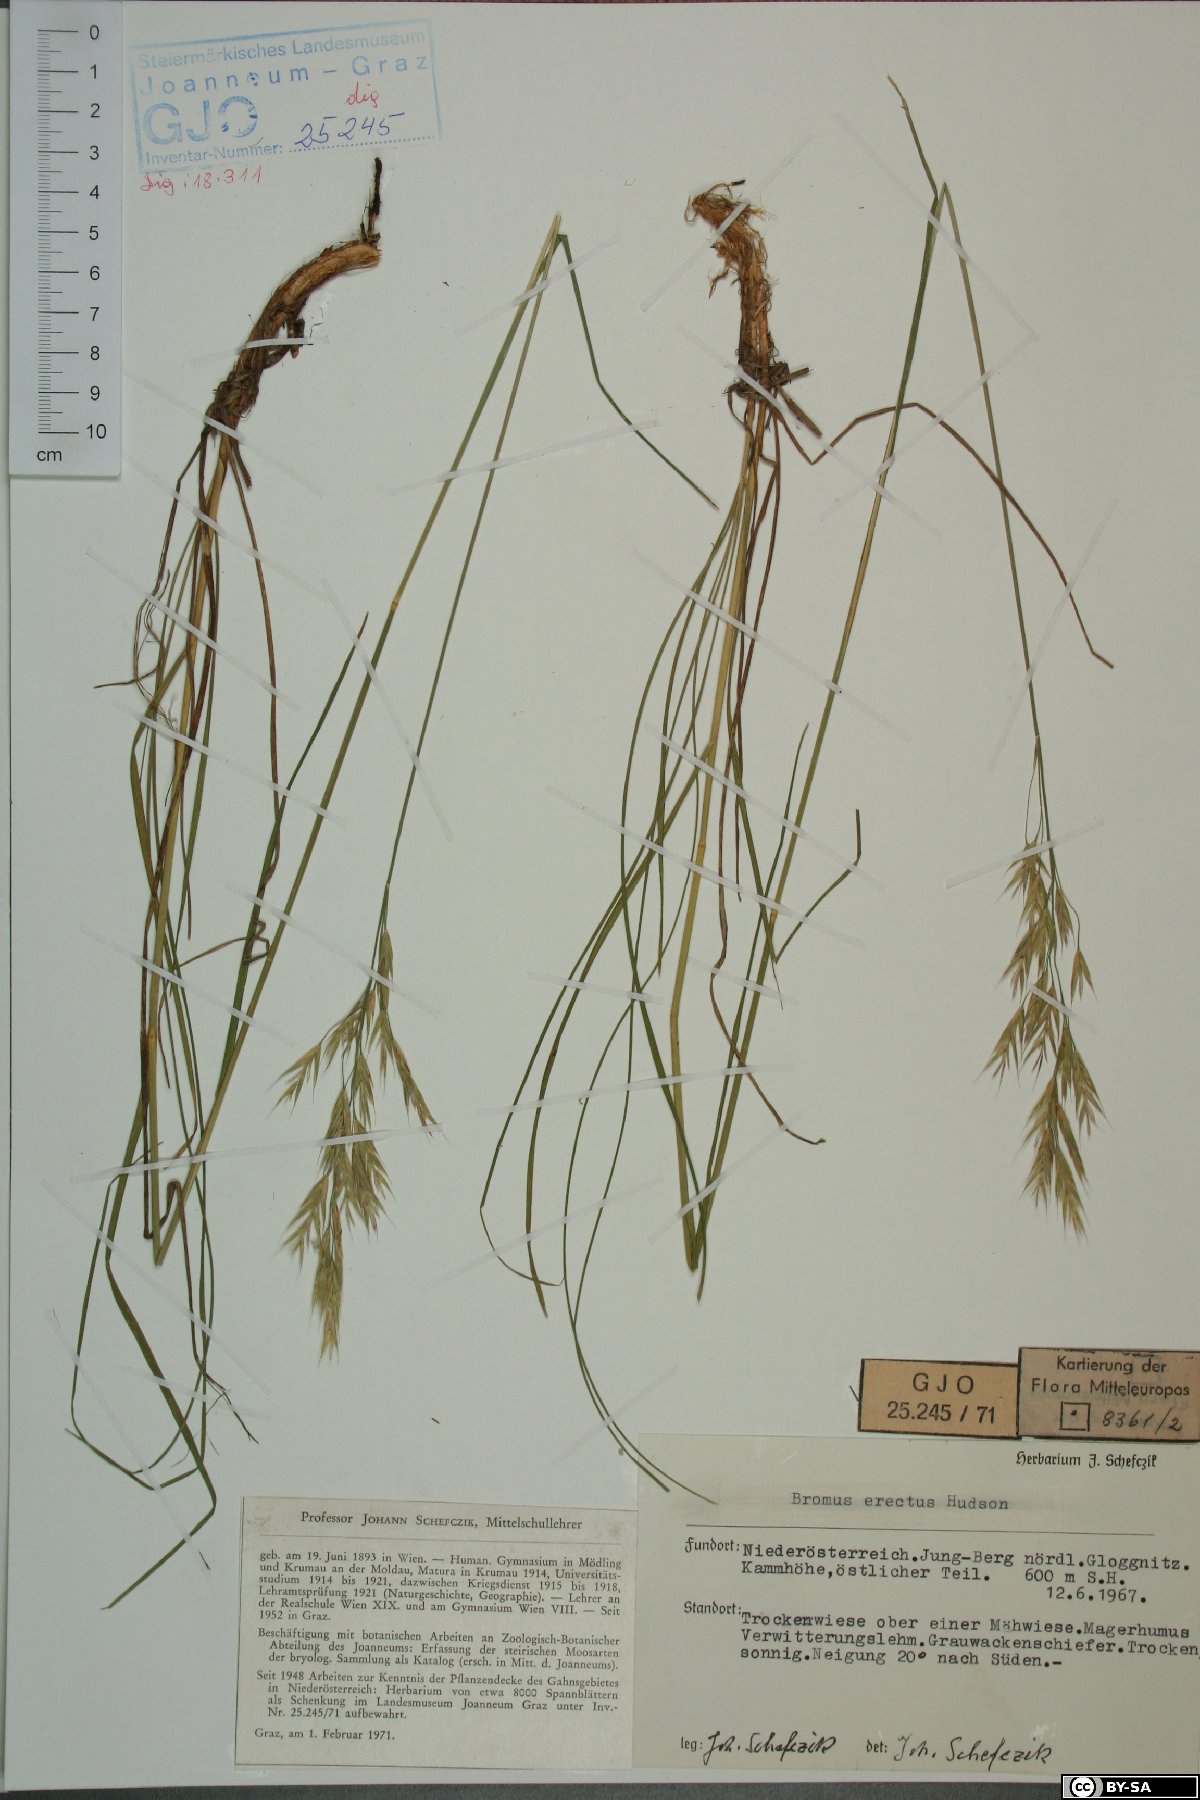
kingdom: Plantae
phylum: Tracheophyta
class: Liliopsida
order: Poales
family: Poaceae
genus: Bromus
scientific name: Bromus erectus
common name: Erect brome
